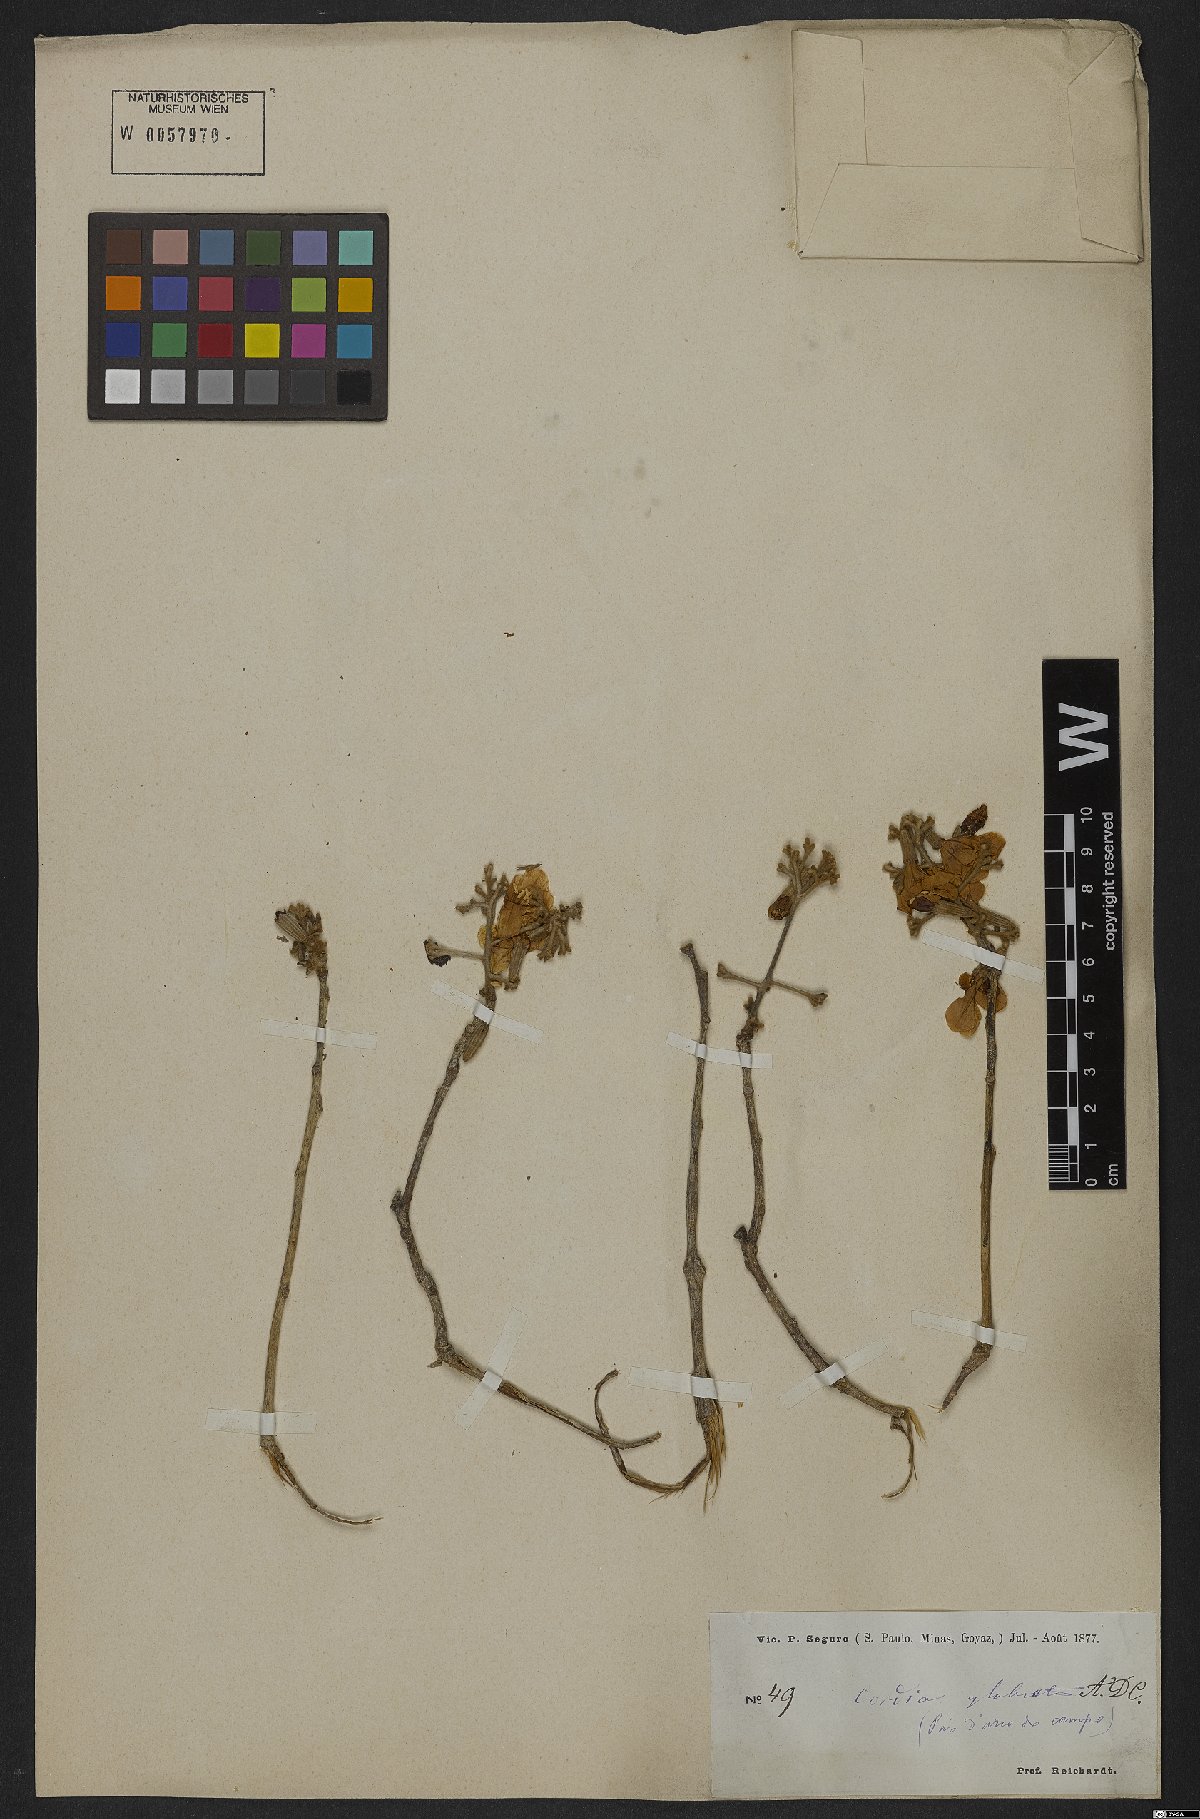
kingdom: Plantae
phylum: Tracheophyta
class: Magnoliopsida
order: Boraginales
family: Cordiaceae
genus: Cordia
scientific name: Cordia glabrata
